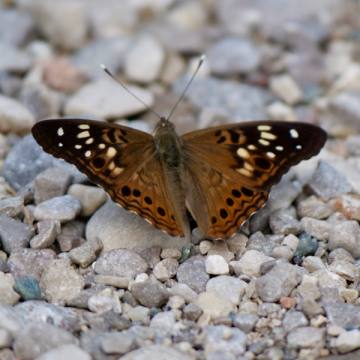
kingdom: Animalia
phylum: Arthropoda
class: Insecta
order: Lepidoptera
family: Nymphalidae
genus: Asterocampa
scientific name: Asterocampa celtis
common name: Hackberry Emperor
